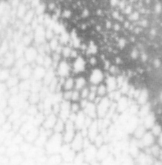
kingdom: Animalia
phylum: Chordata
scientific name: Chordata
